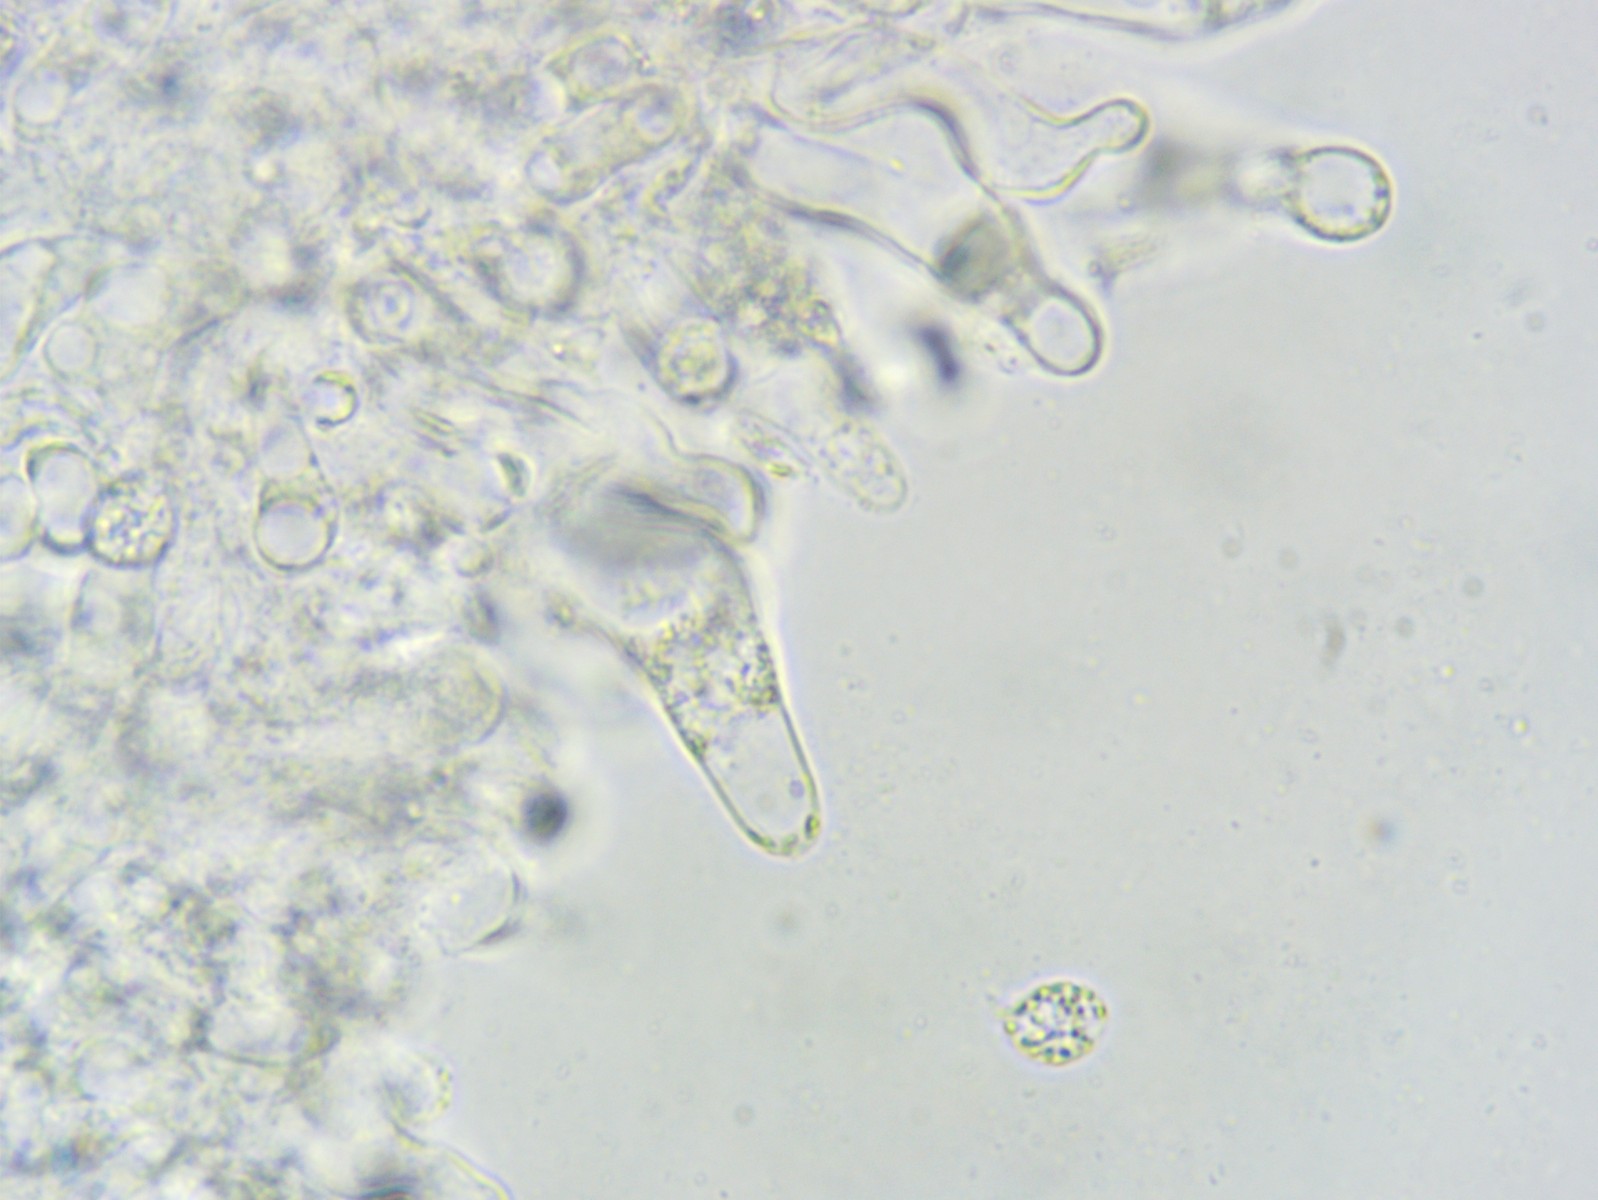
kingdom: Fungi
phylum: Basidiomycota
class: Agaricomycetes
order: Agaricales
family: Porotheleaceae
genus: Phloeomana
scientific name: Phloeomana hiemalis
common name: sen huesvamp
